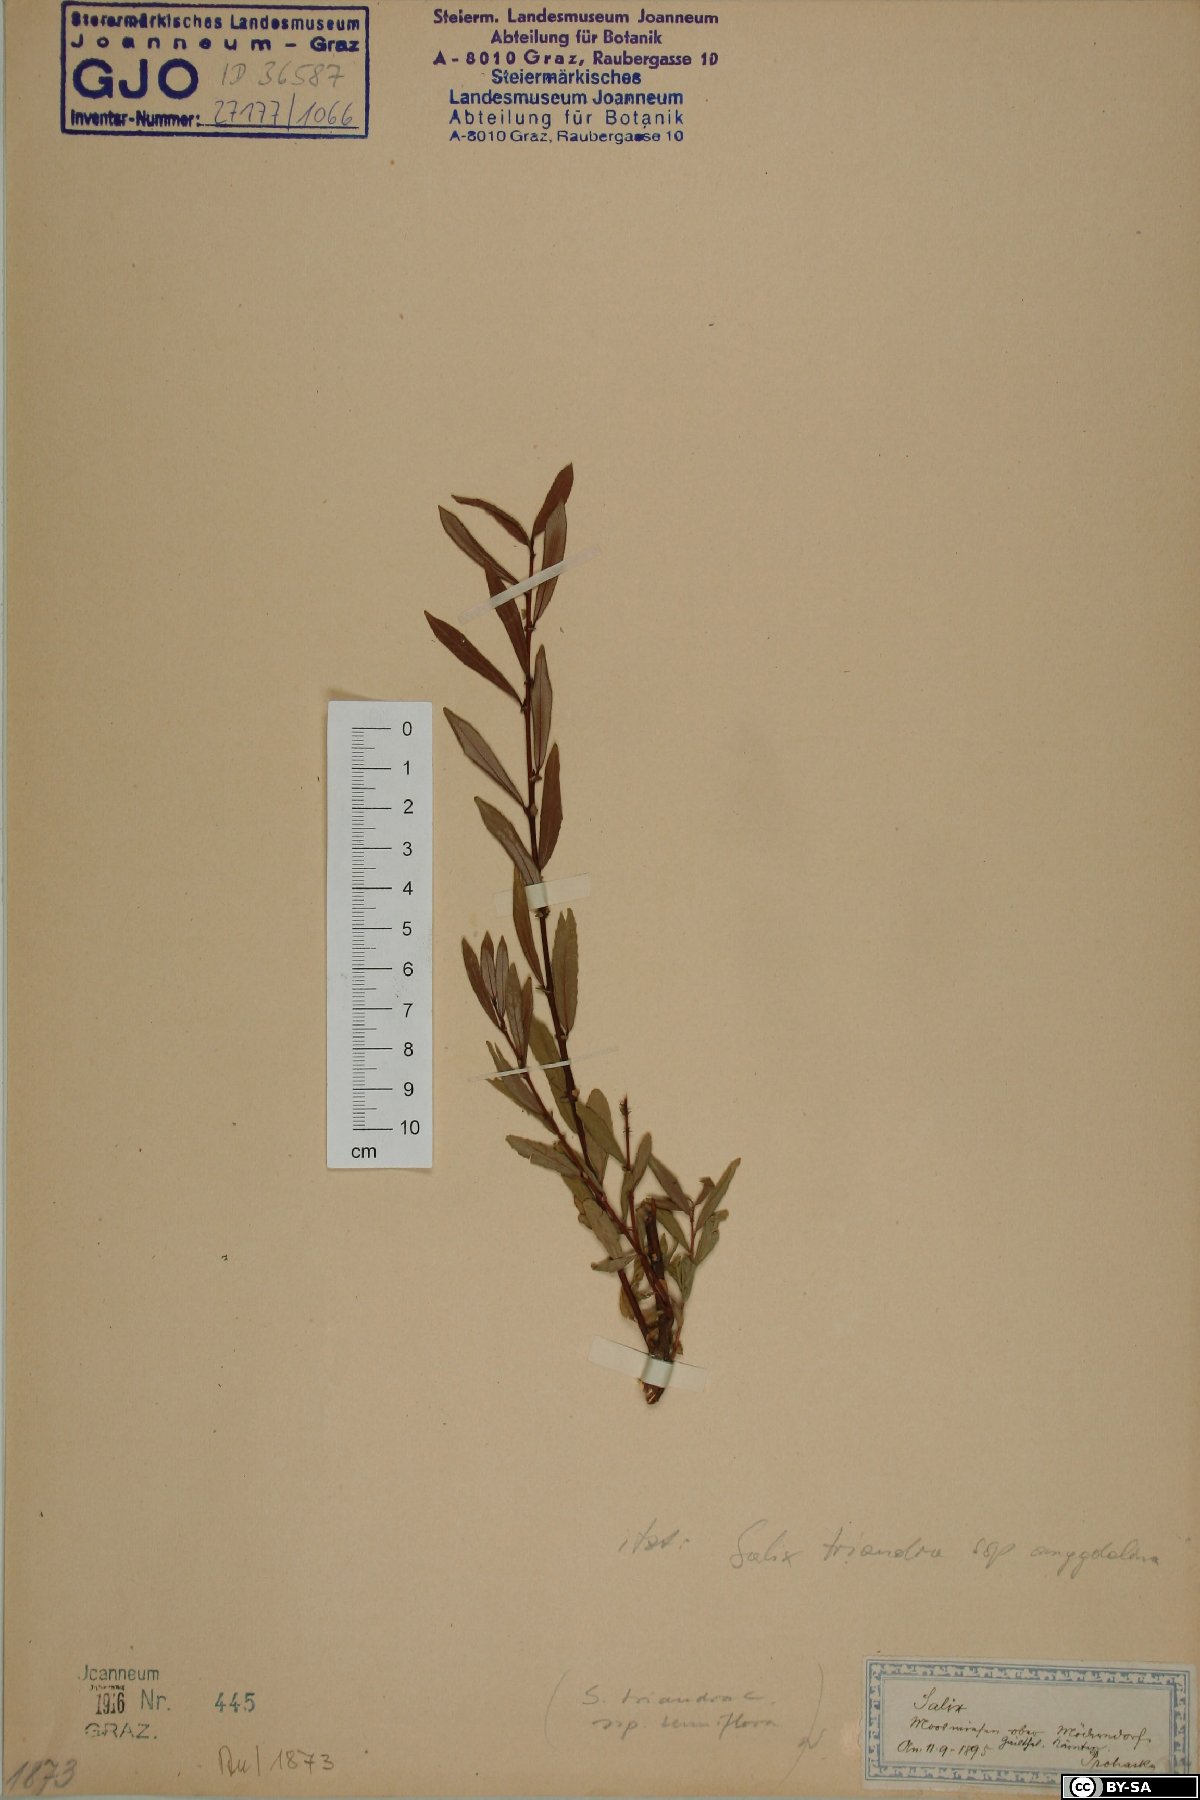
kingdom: Plantae
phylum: Tracheophyta
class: Magnoliopsida
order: Malpighiales
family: Salicaceae
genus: Salix
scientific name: Salix triandra
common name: Almond willow
